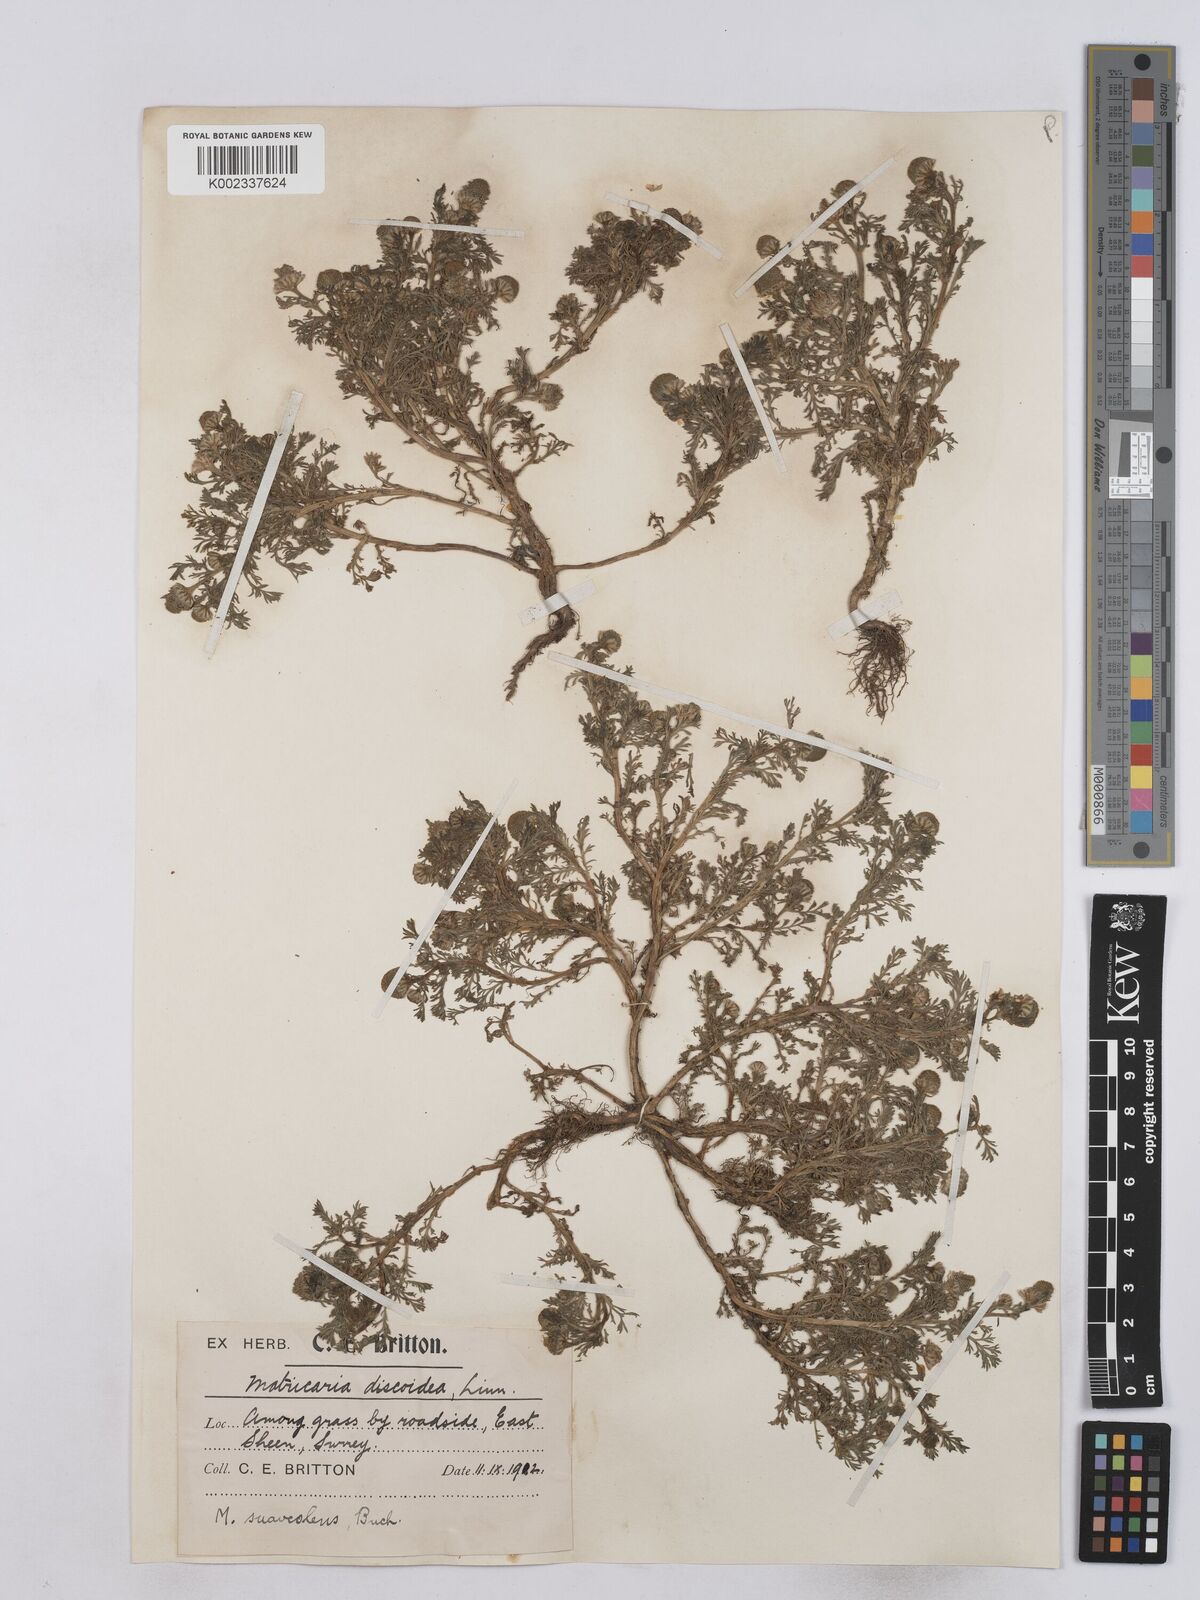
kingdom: Plantae
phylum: Tracheophyta
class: Magnoliopsida
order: Asterales
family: Asteraceae
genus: Matricaria
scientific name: Matricaria discoidea
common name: Disc mayweed
